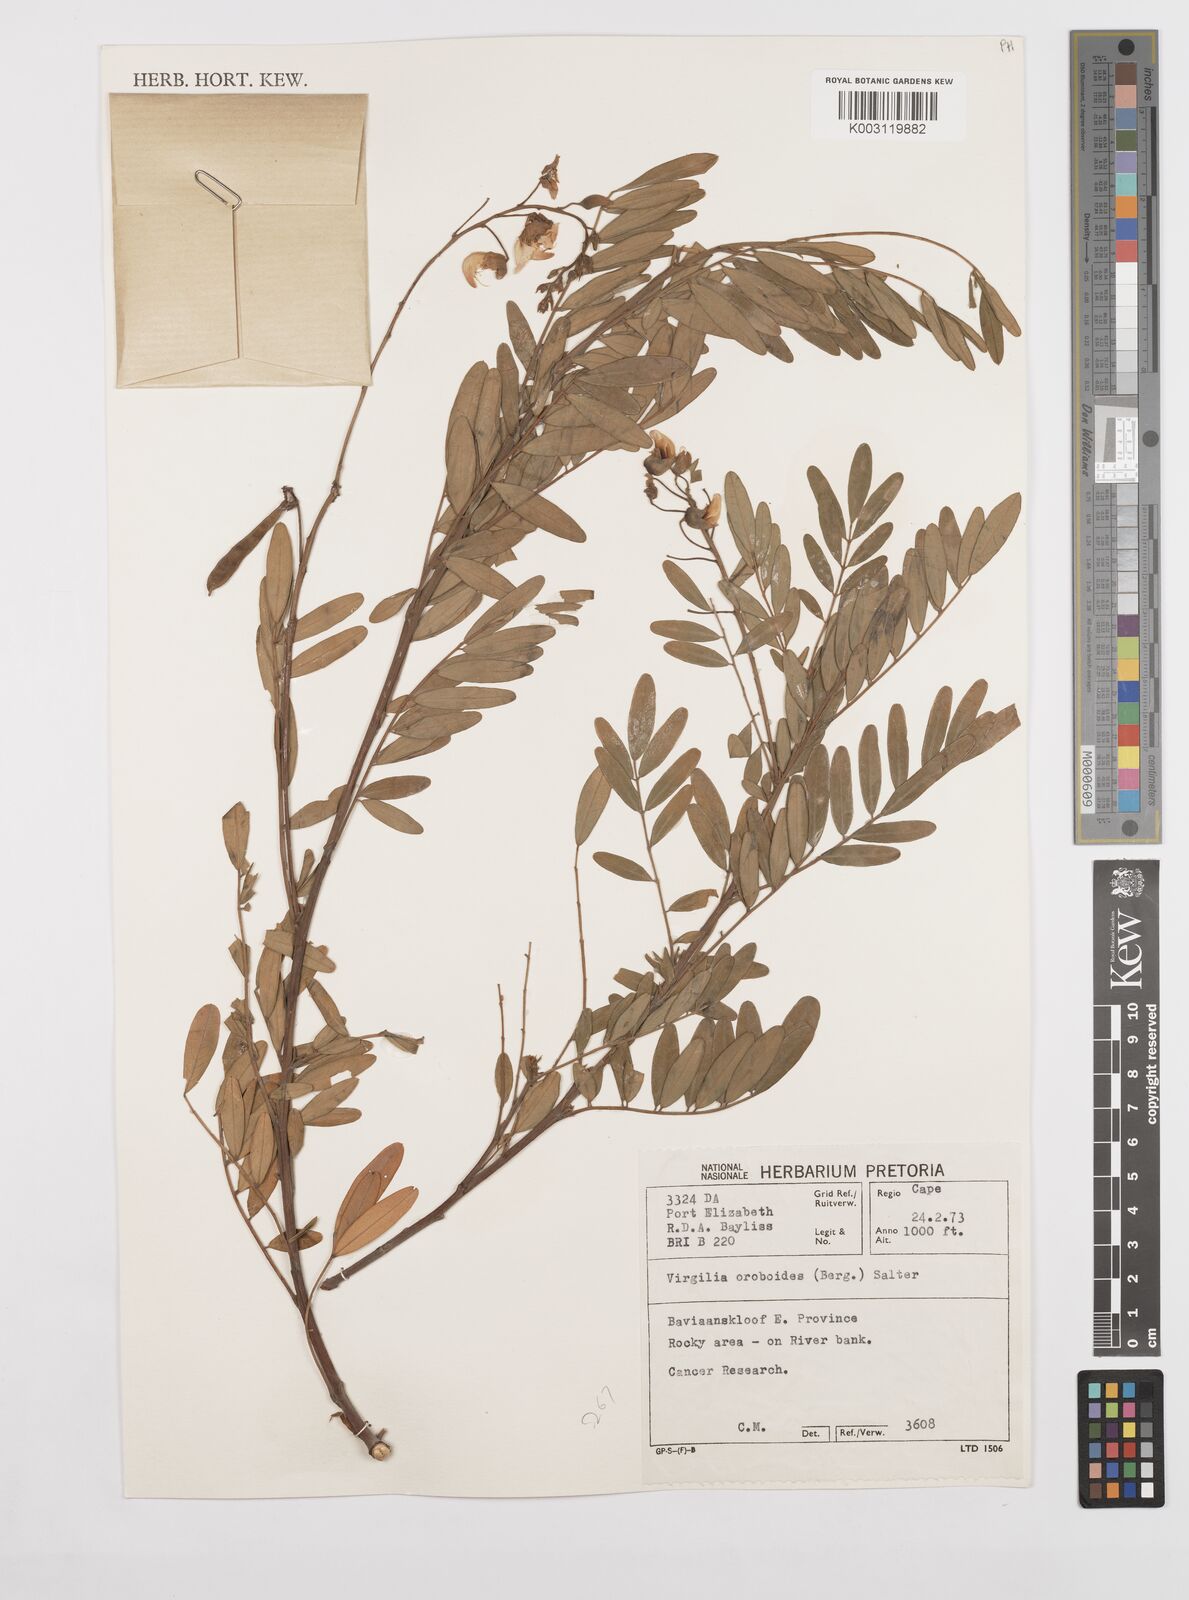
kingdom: Plantae
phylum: Tracheophyta
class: Magnoliopsida
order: Fabales
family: Fabaceae
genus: Virgilia
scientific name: Virgilia oroboides
